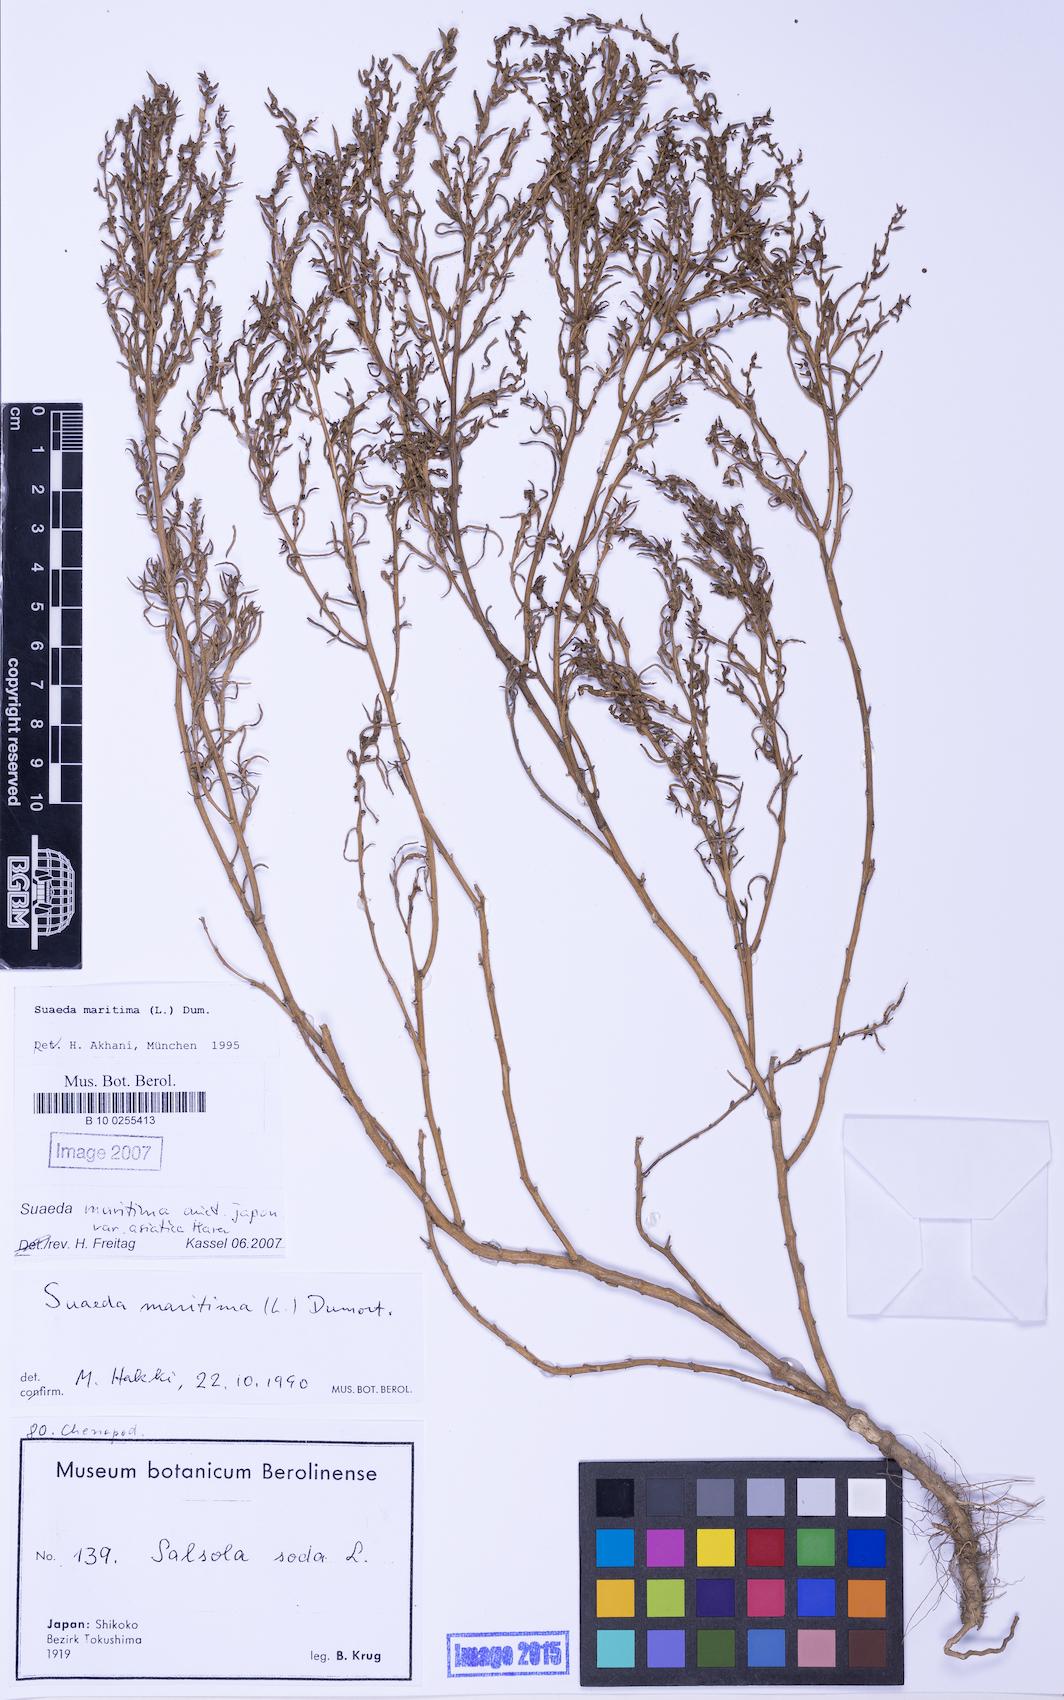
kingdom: Plantae
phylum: Tracheophyta
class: Magnoliopsida
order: Caryophyllales
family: Amaranthaceae
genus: Soda
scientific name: Soda inermis
